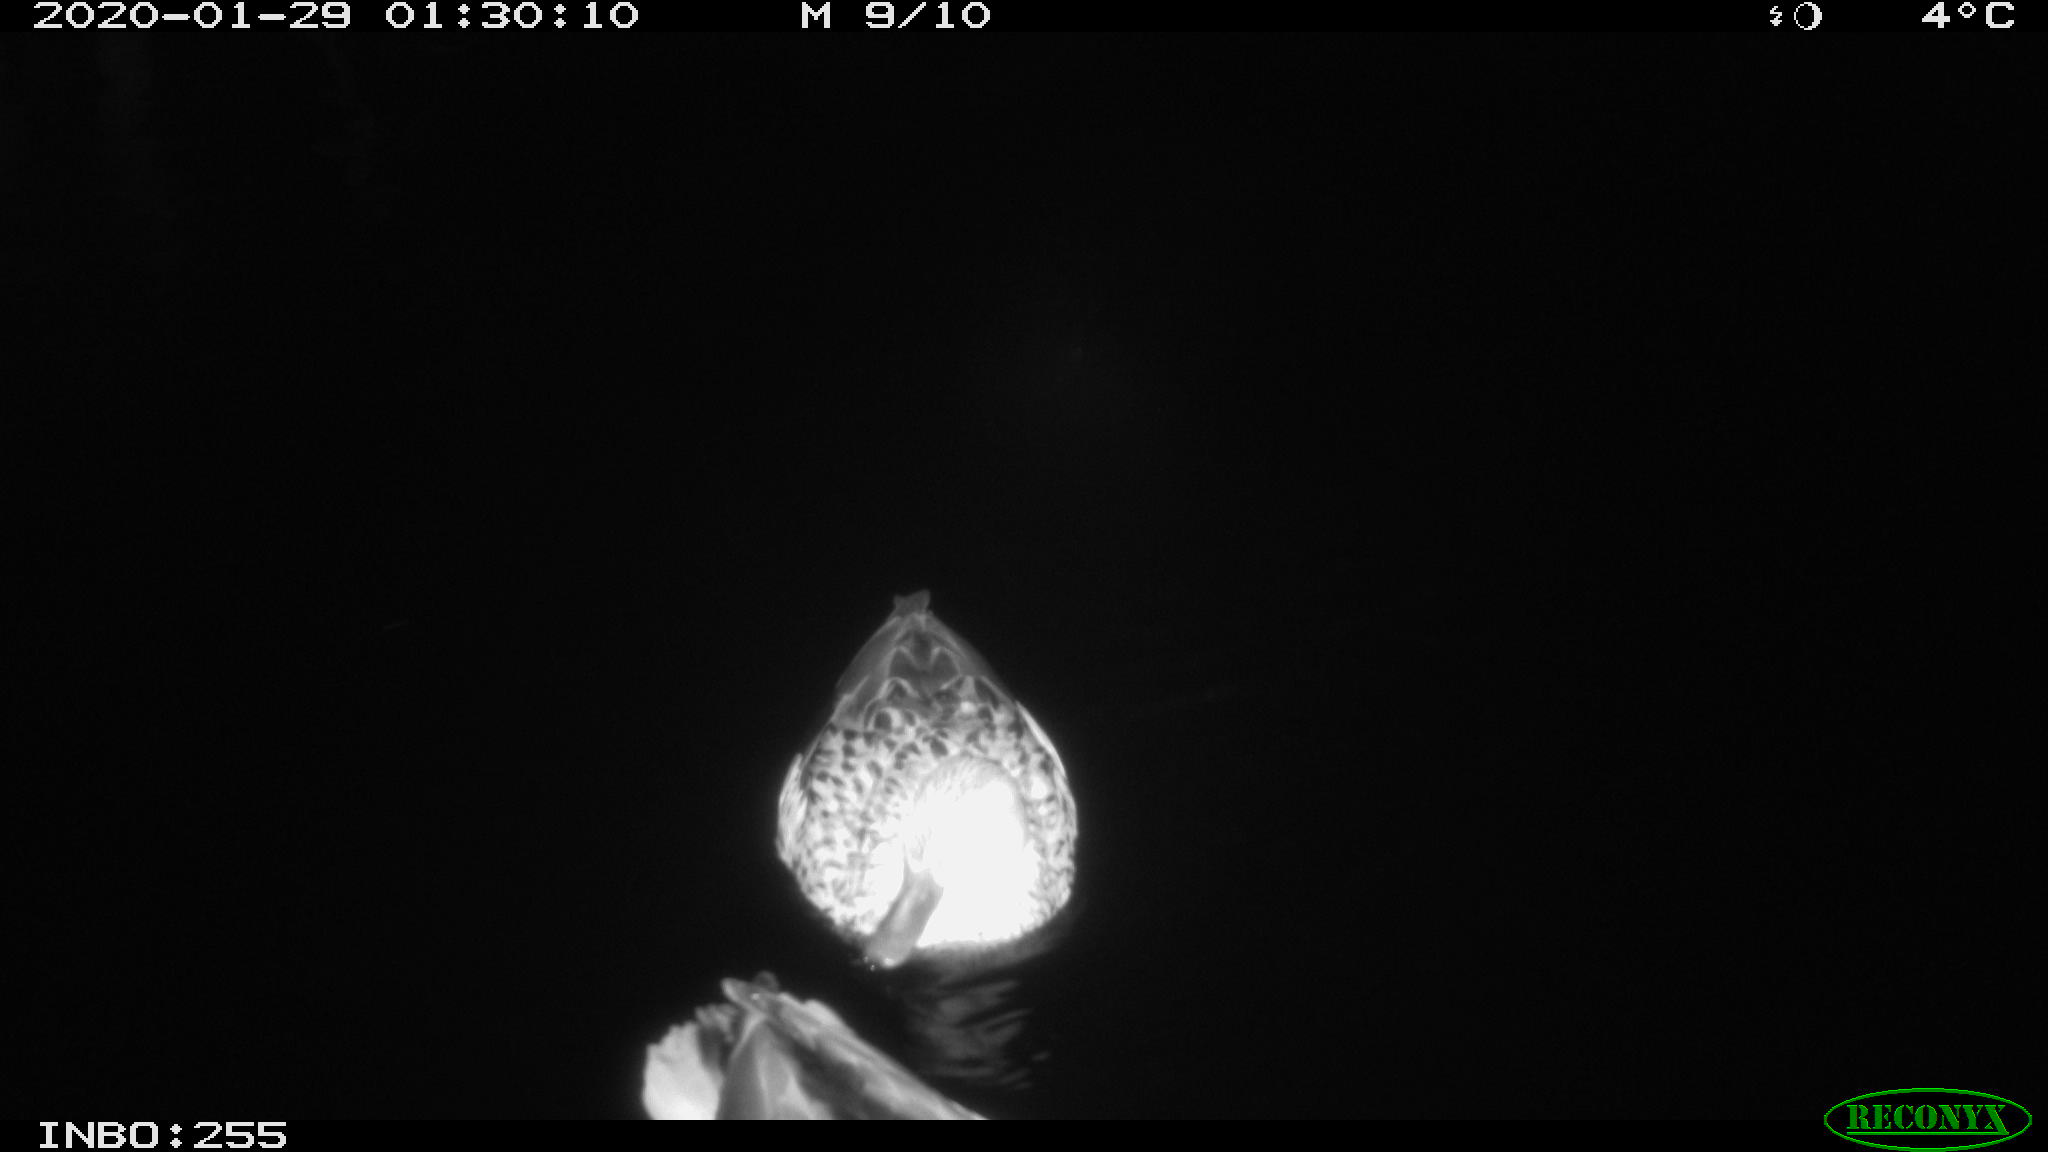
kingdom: Animalia
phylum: Chordata
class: Aves
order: Anseriformes
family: Anatidae
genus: Anas
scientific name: Anas platyrhynchos
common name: Mallard
